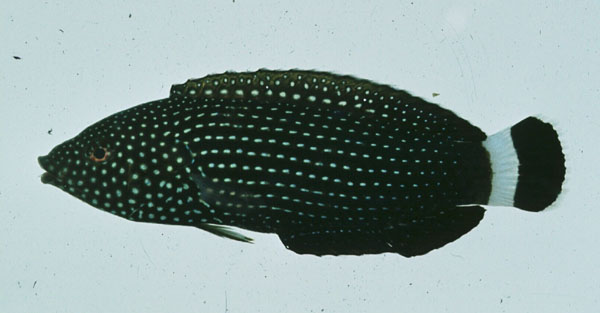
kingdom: Animalia
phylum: Chordata
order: Perciformes
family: Labridae
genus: Anampses
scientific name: Anampses lineatus
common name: Lined wrasse
